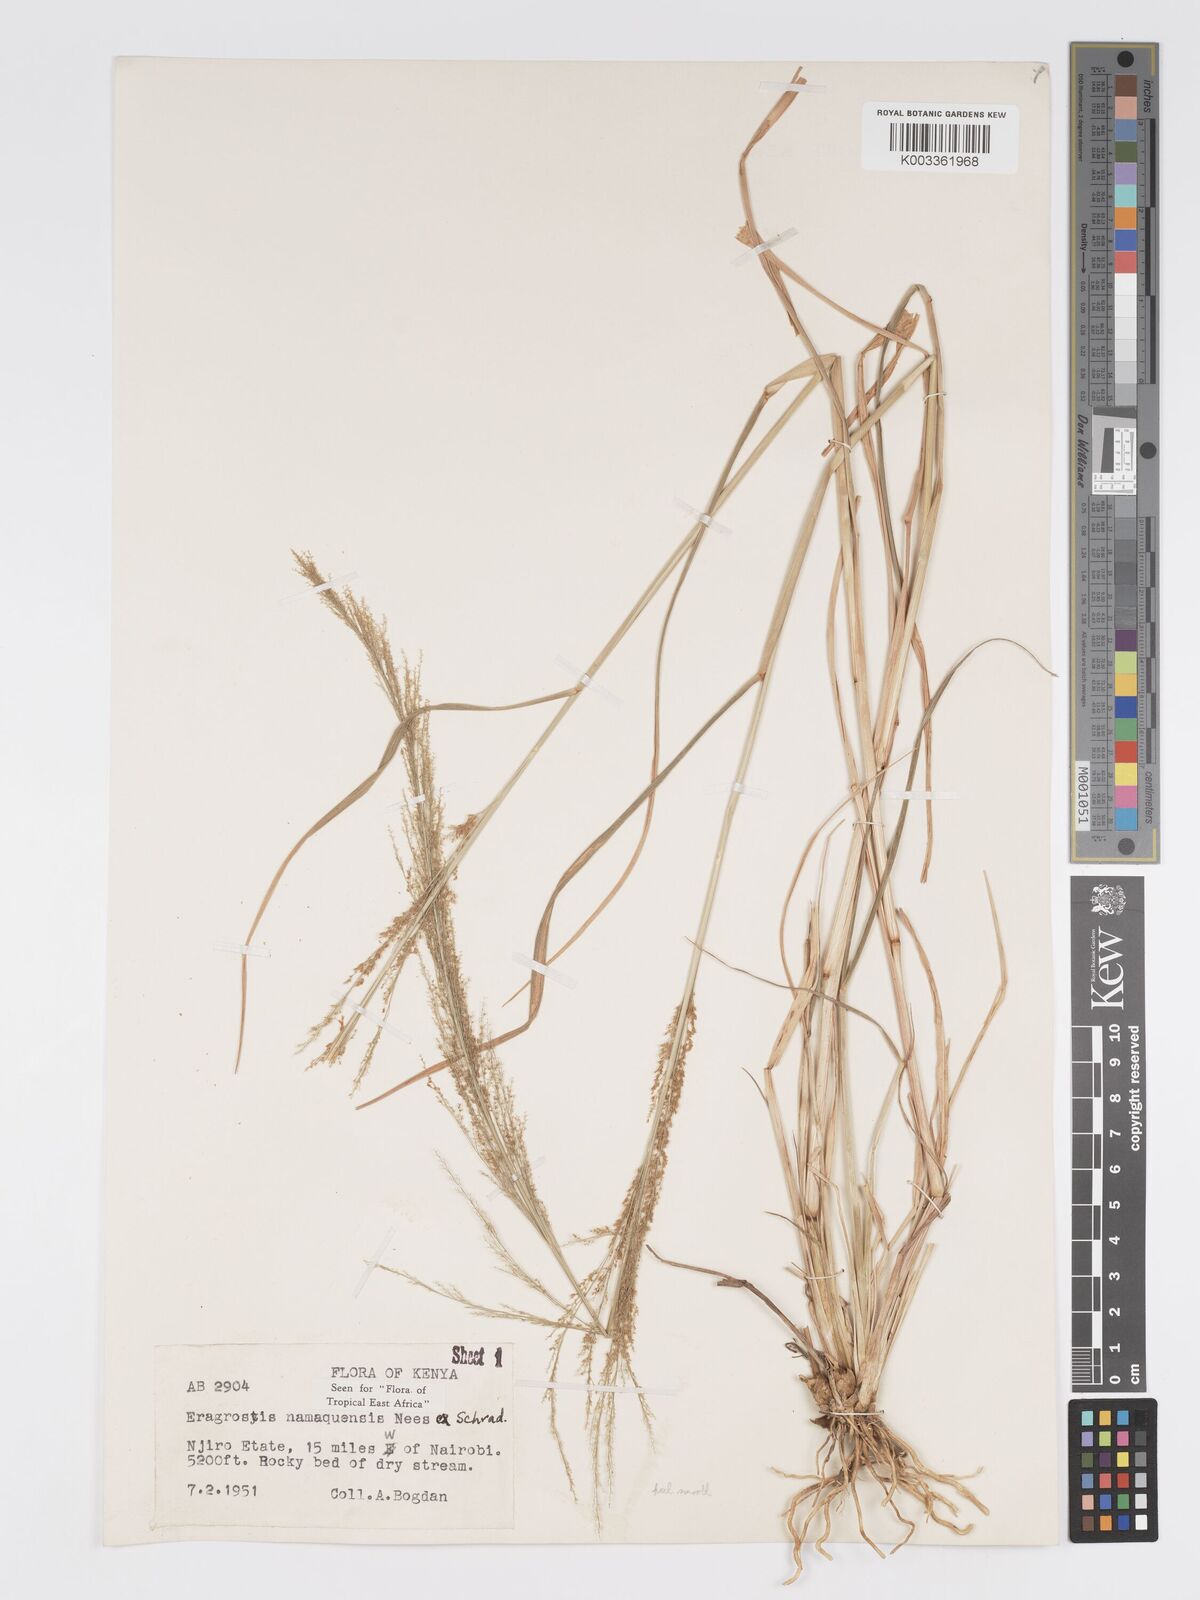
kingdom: Plantae
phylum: Tracheophyta
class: Liliopsida
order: Poales
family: Poaceae
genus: Eragrostis
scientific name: Eragrostis japonica
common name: Pond lovegrass
